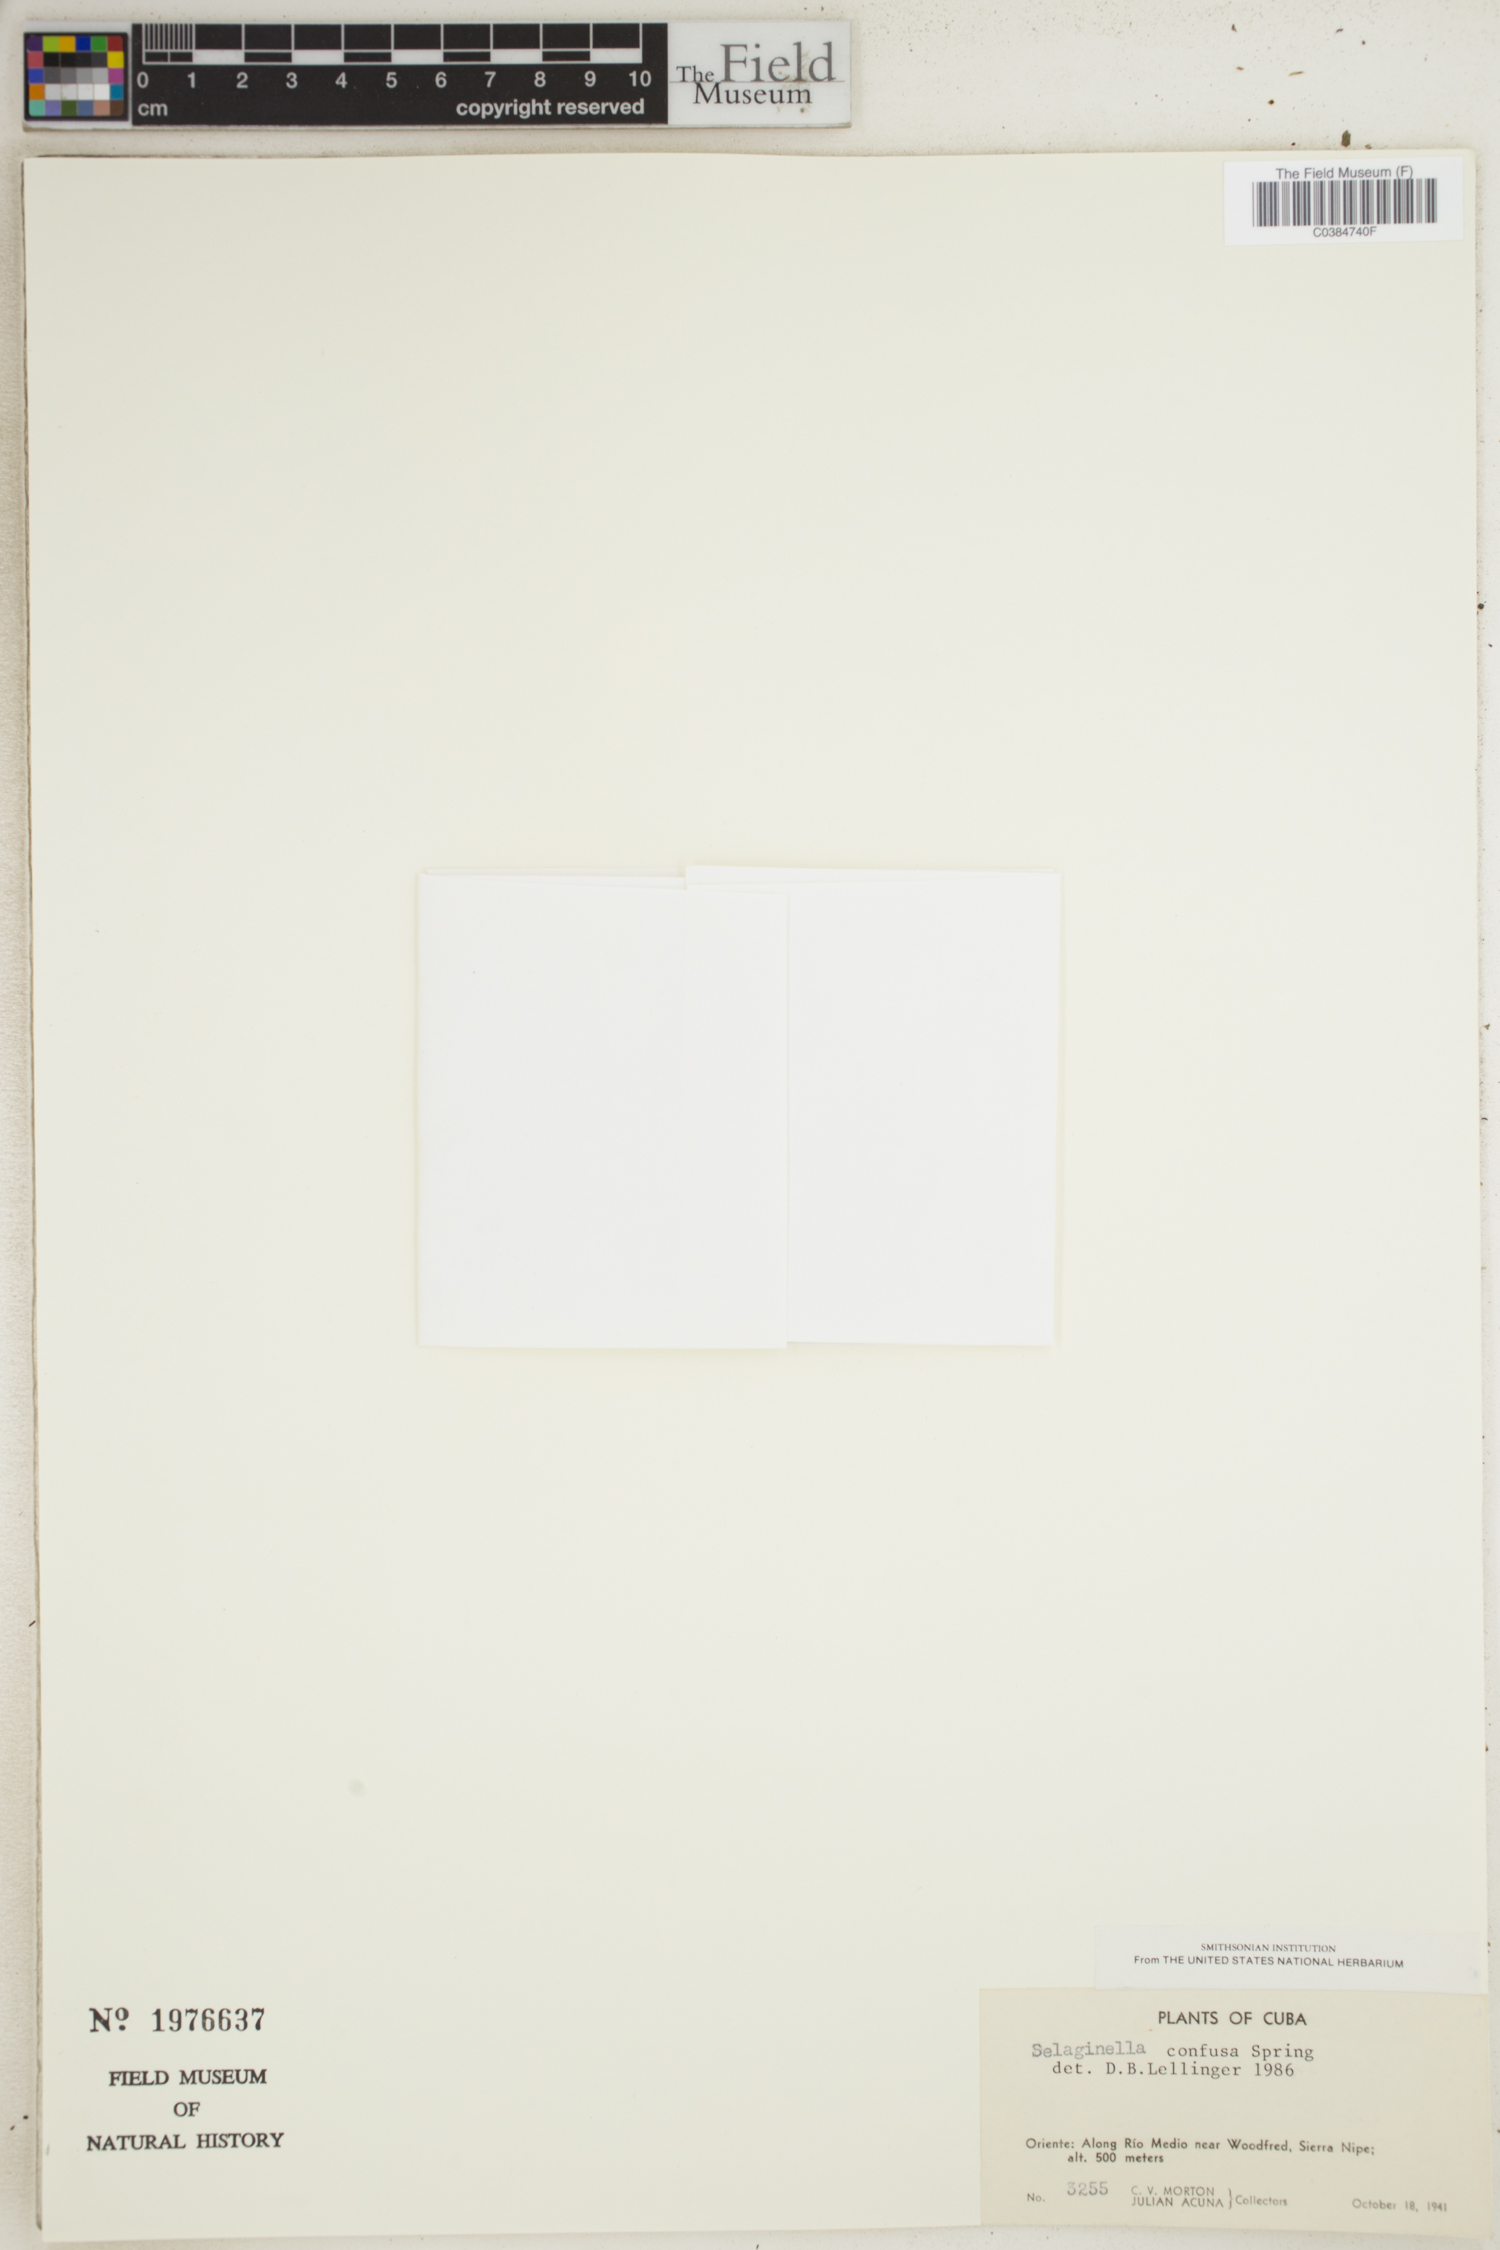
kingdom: Plantae
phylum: Tracheophyta
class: Lycopodiopsida
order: Selaginellales
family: Selaginellaceae
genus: Selaginella
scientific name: Selaginella confusa
